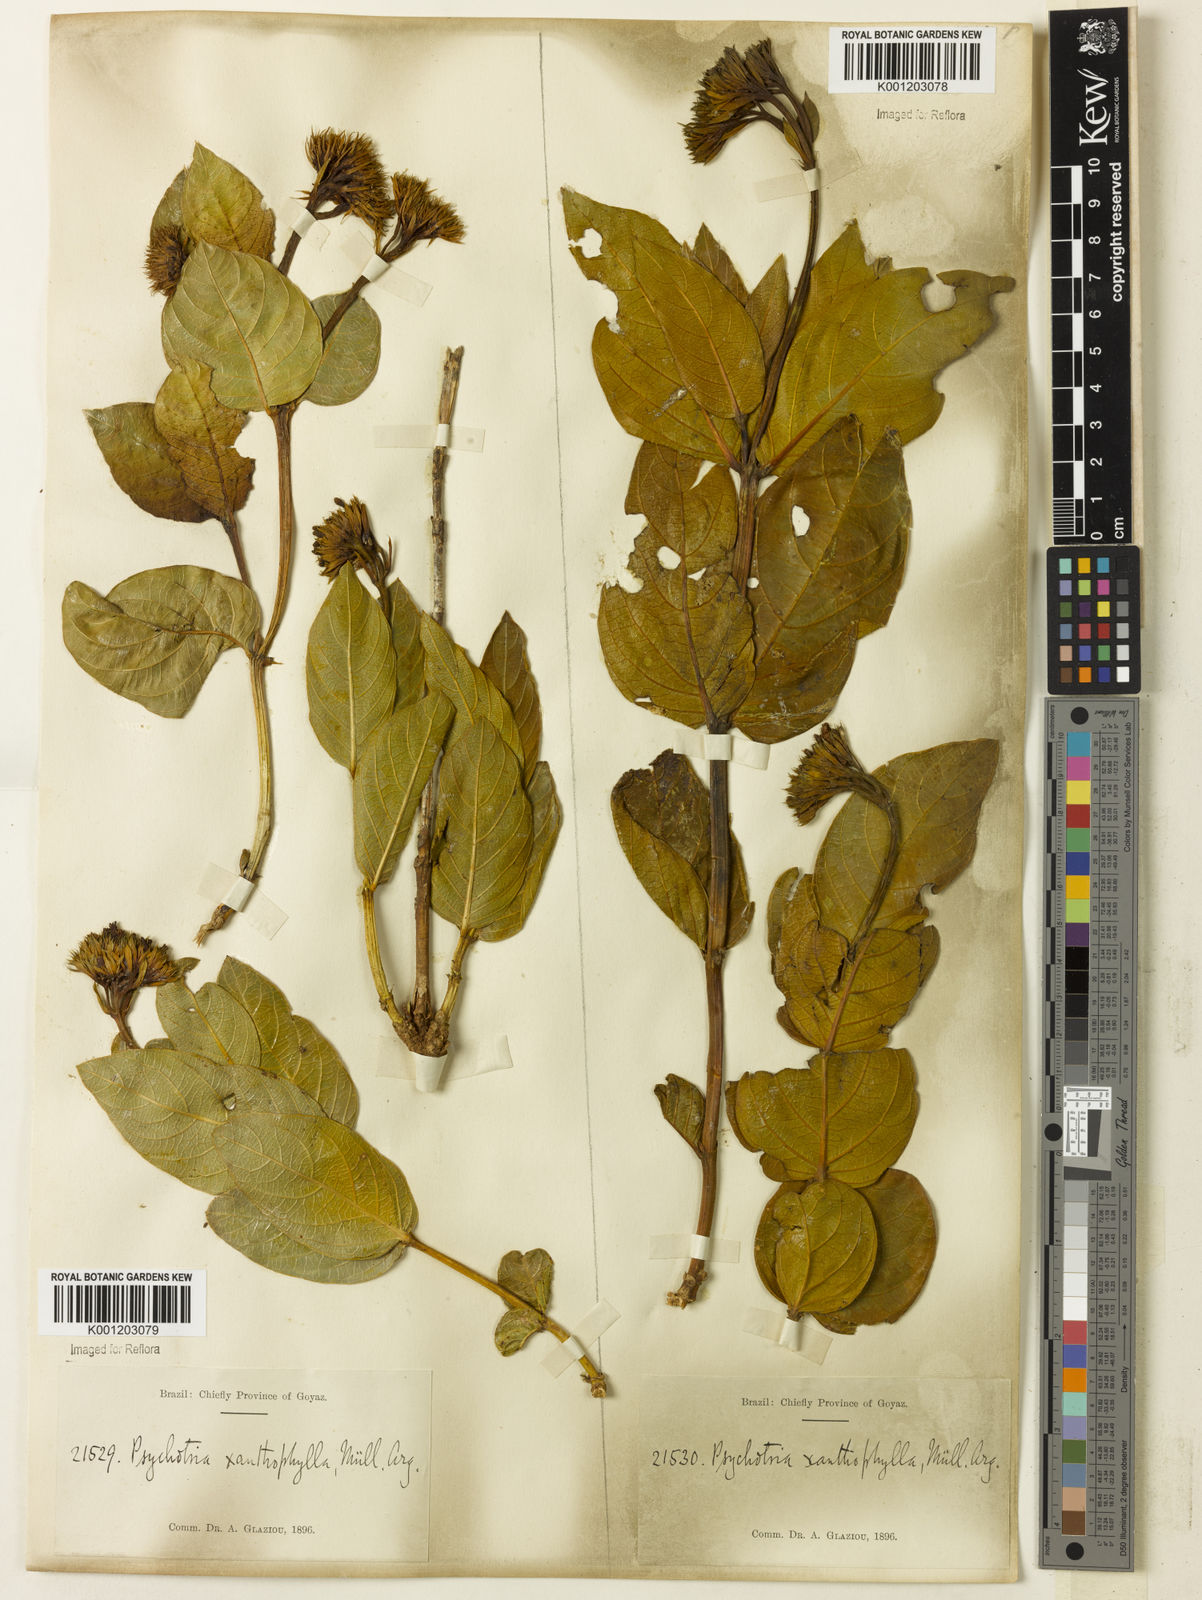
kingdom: Plantae
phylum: Tracheophyta
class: Magnoliopsida
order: Gentianales
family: Rubiaceae
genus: Palicourea
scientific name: Palicourea coriacea
